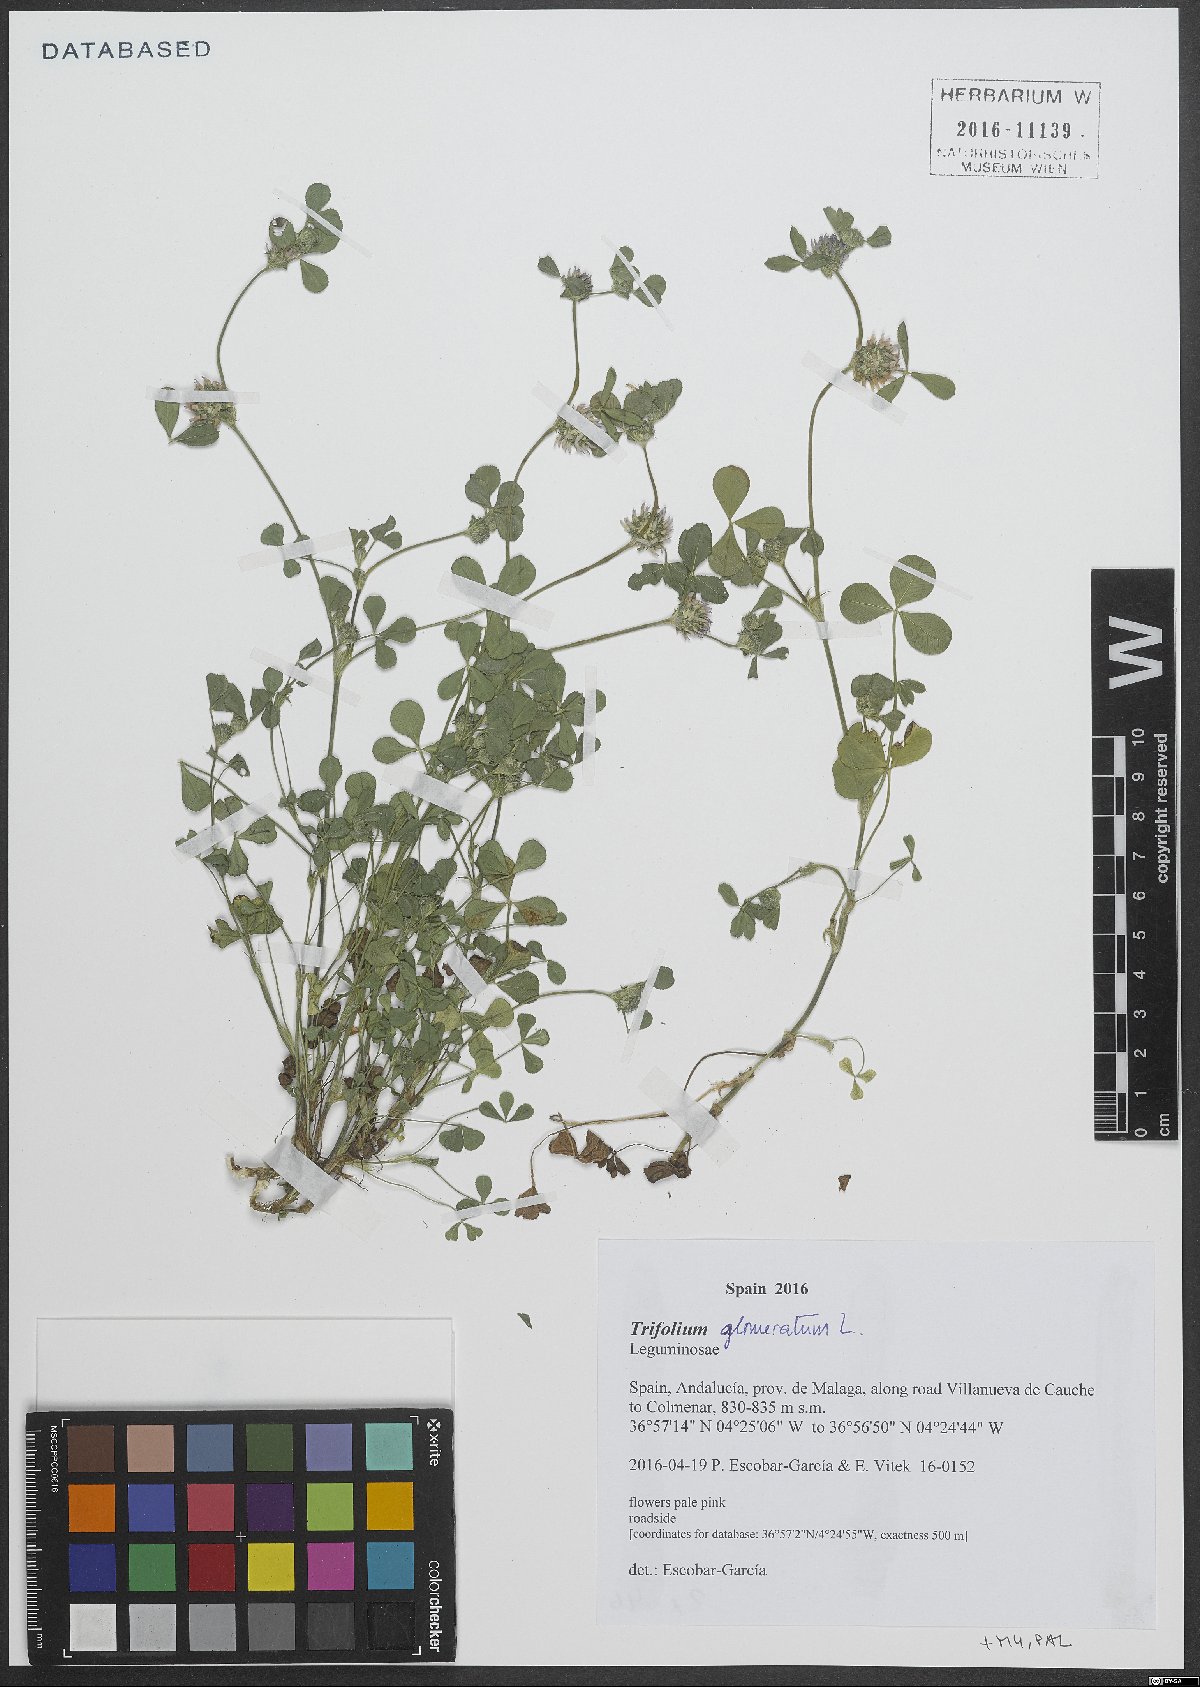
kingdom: Plantae
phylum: Tracheophyta
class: Magnoliopsida
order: Fabales
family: Fabaceae
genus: Trifolium
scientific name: Trifolium glomeratum
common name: Clustered clover
